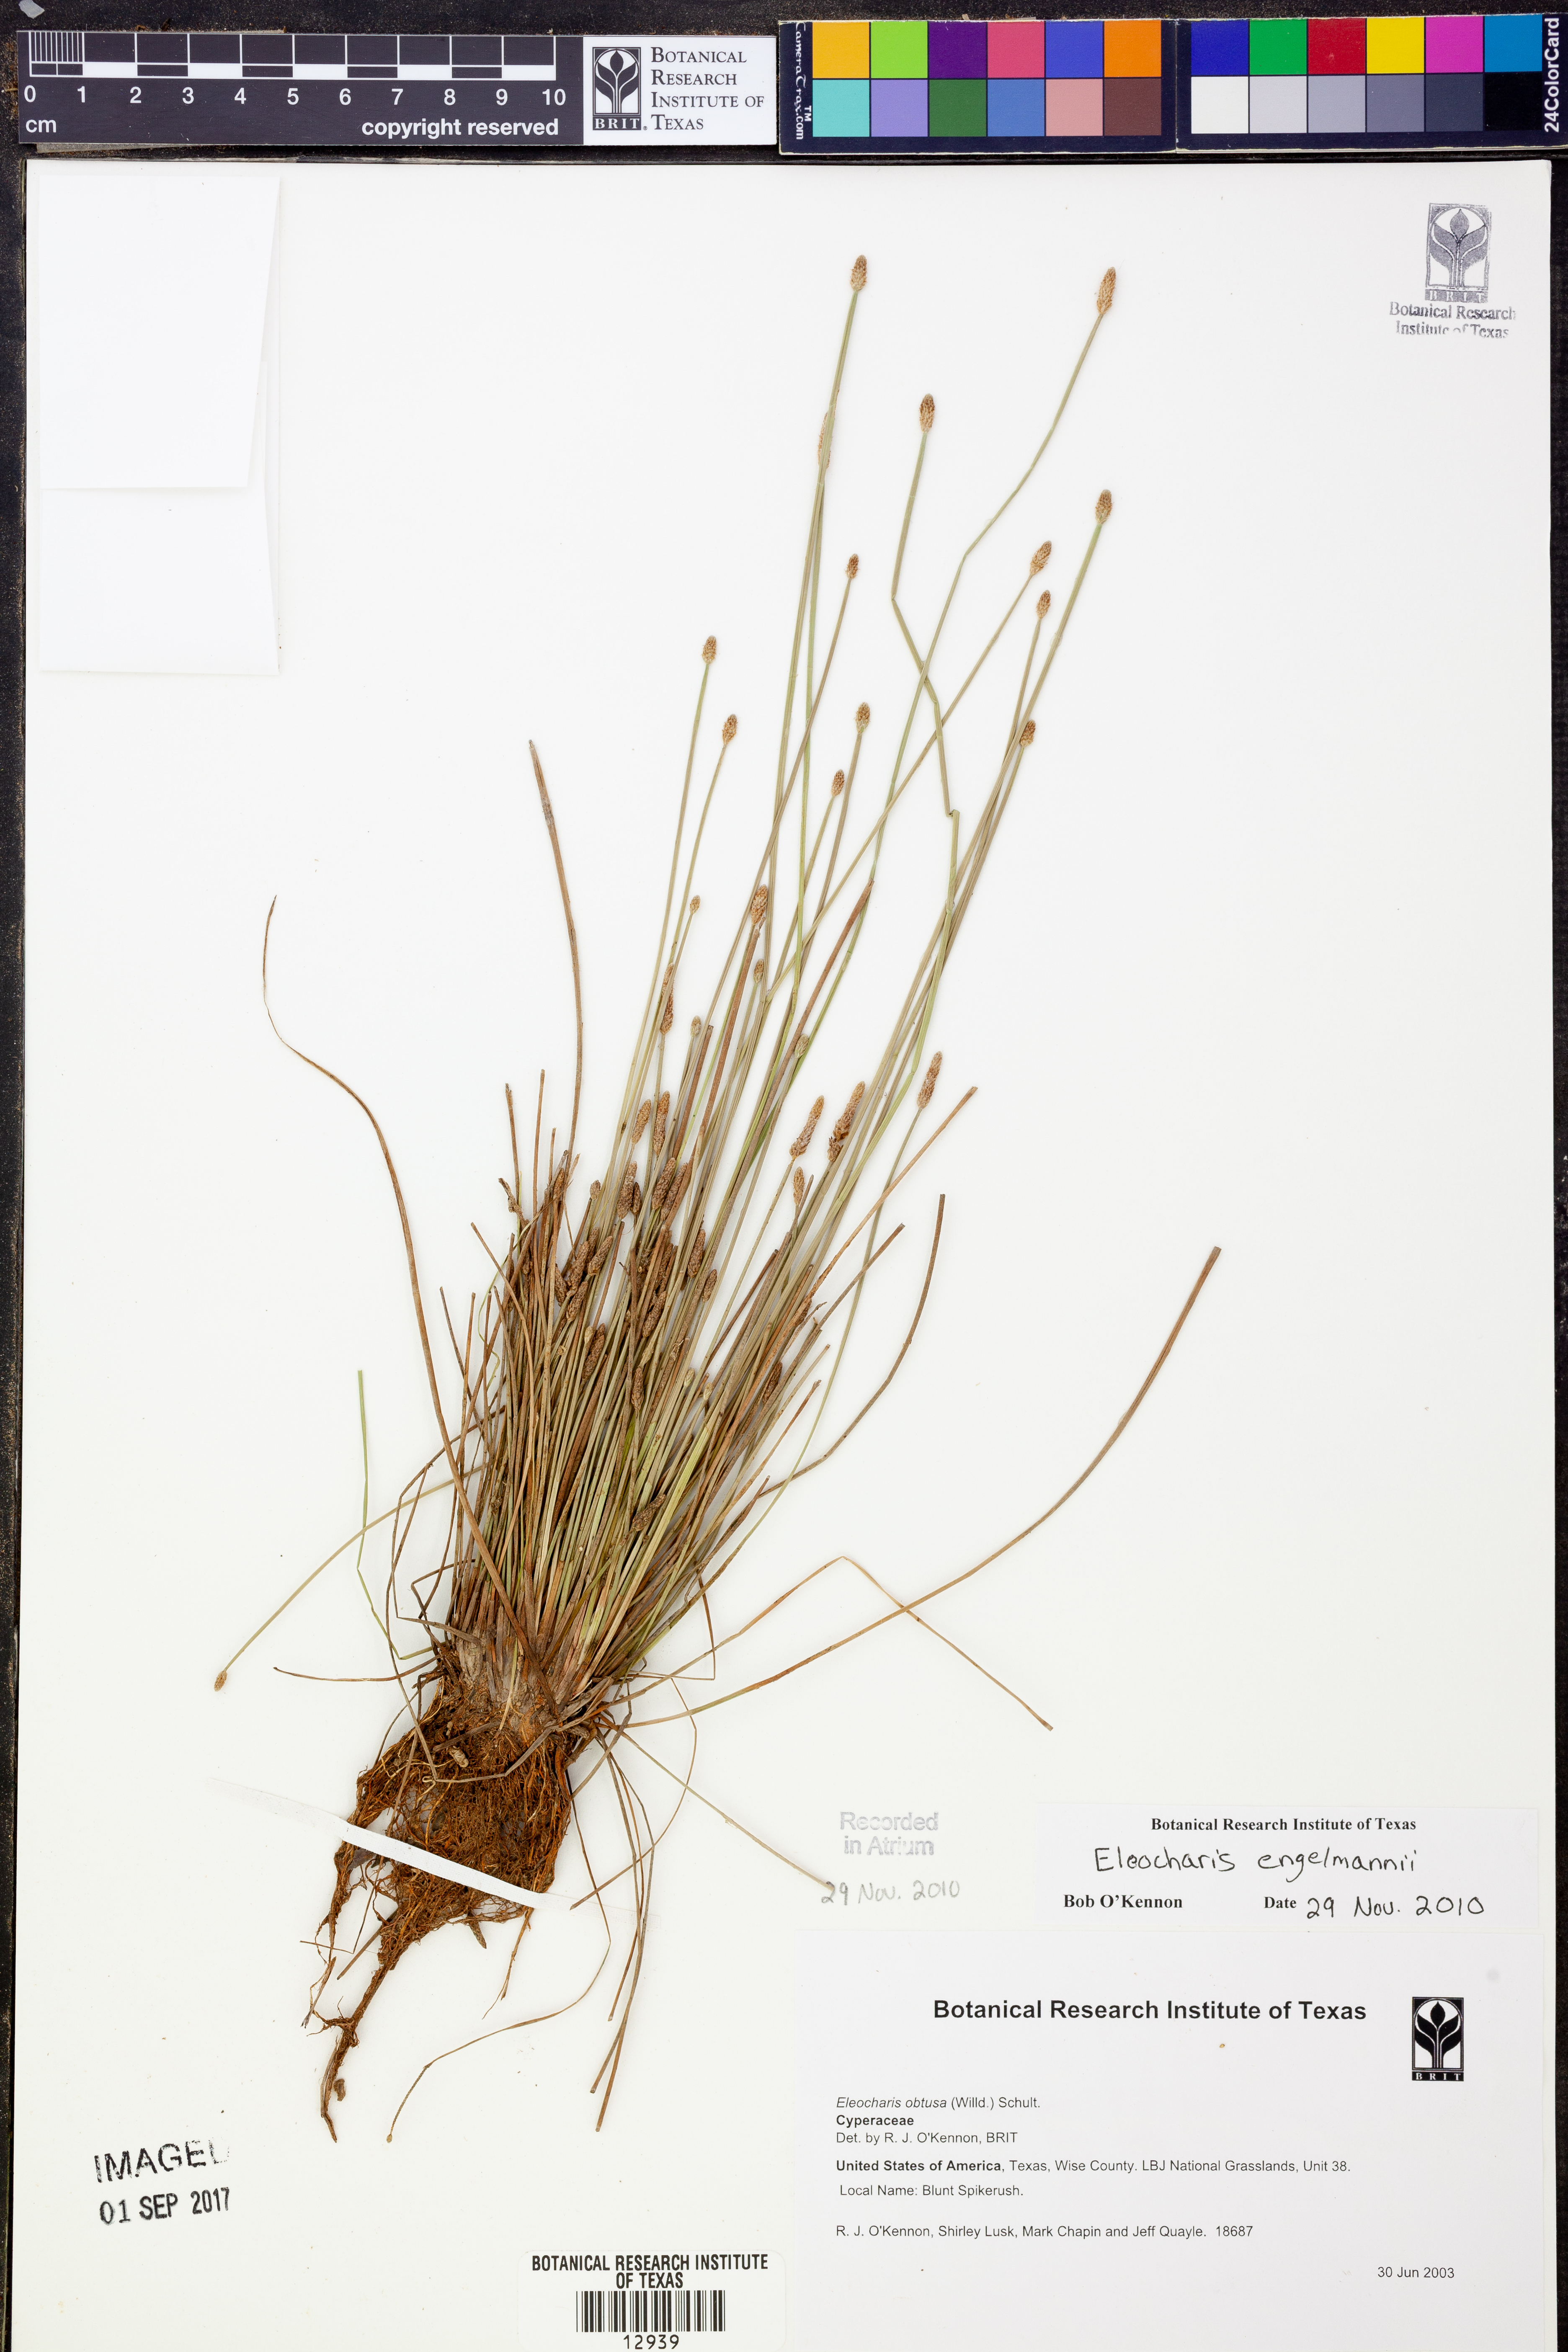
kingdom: Plantae
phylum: Tracheophyta
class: Liliopsida
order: Poales
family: Cyperaceae
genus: Eleocharis
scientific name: Eleocharis engelmannii
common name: Engelmann's spikerush
